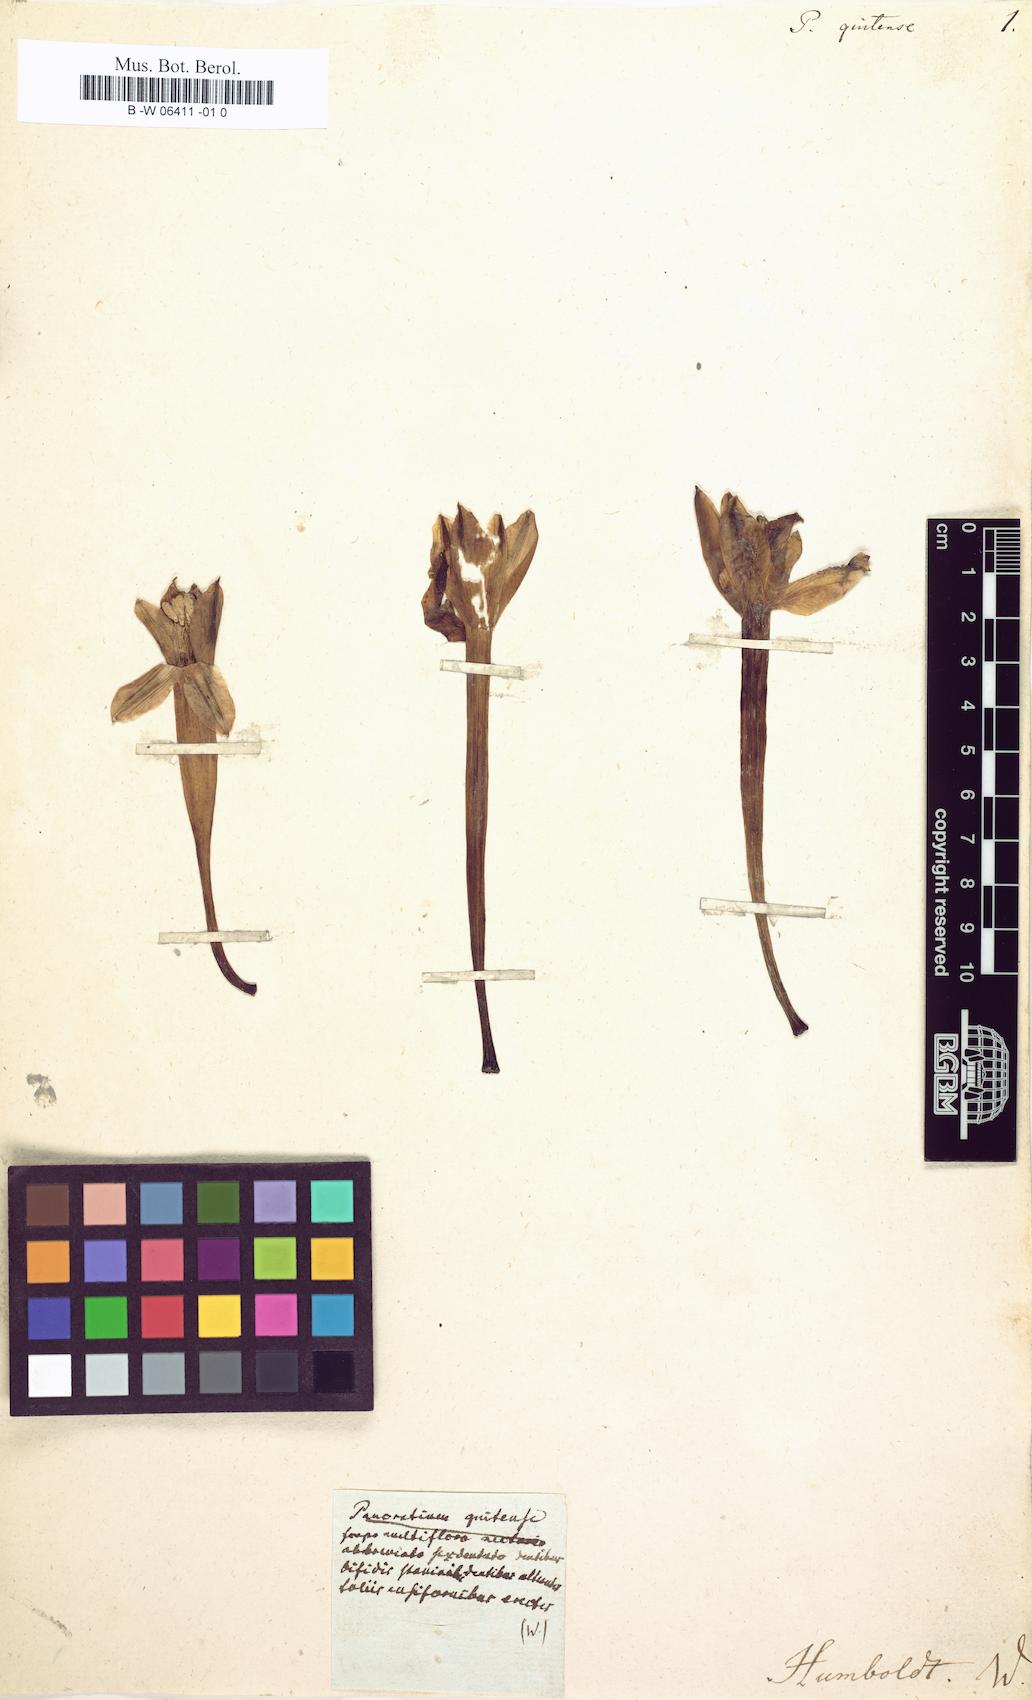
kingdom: Plantae
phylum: Tracheophyta
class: Liliopsida
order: Asparagales
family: Amaryllidaceae
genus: Clinanthus
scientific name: Clinanthus incarnatus
